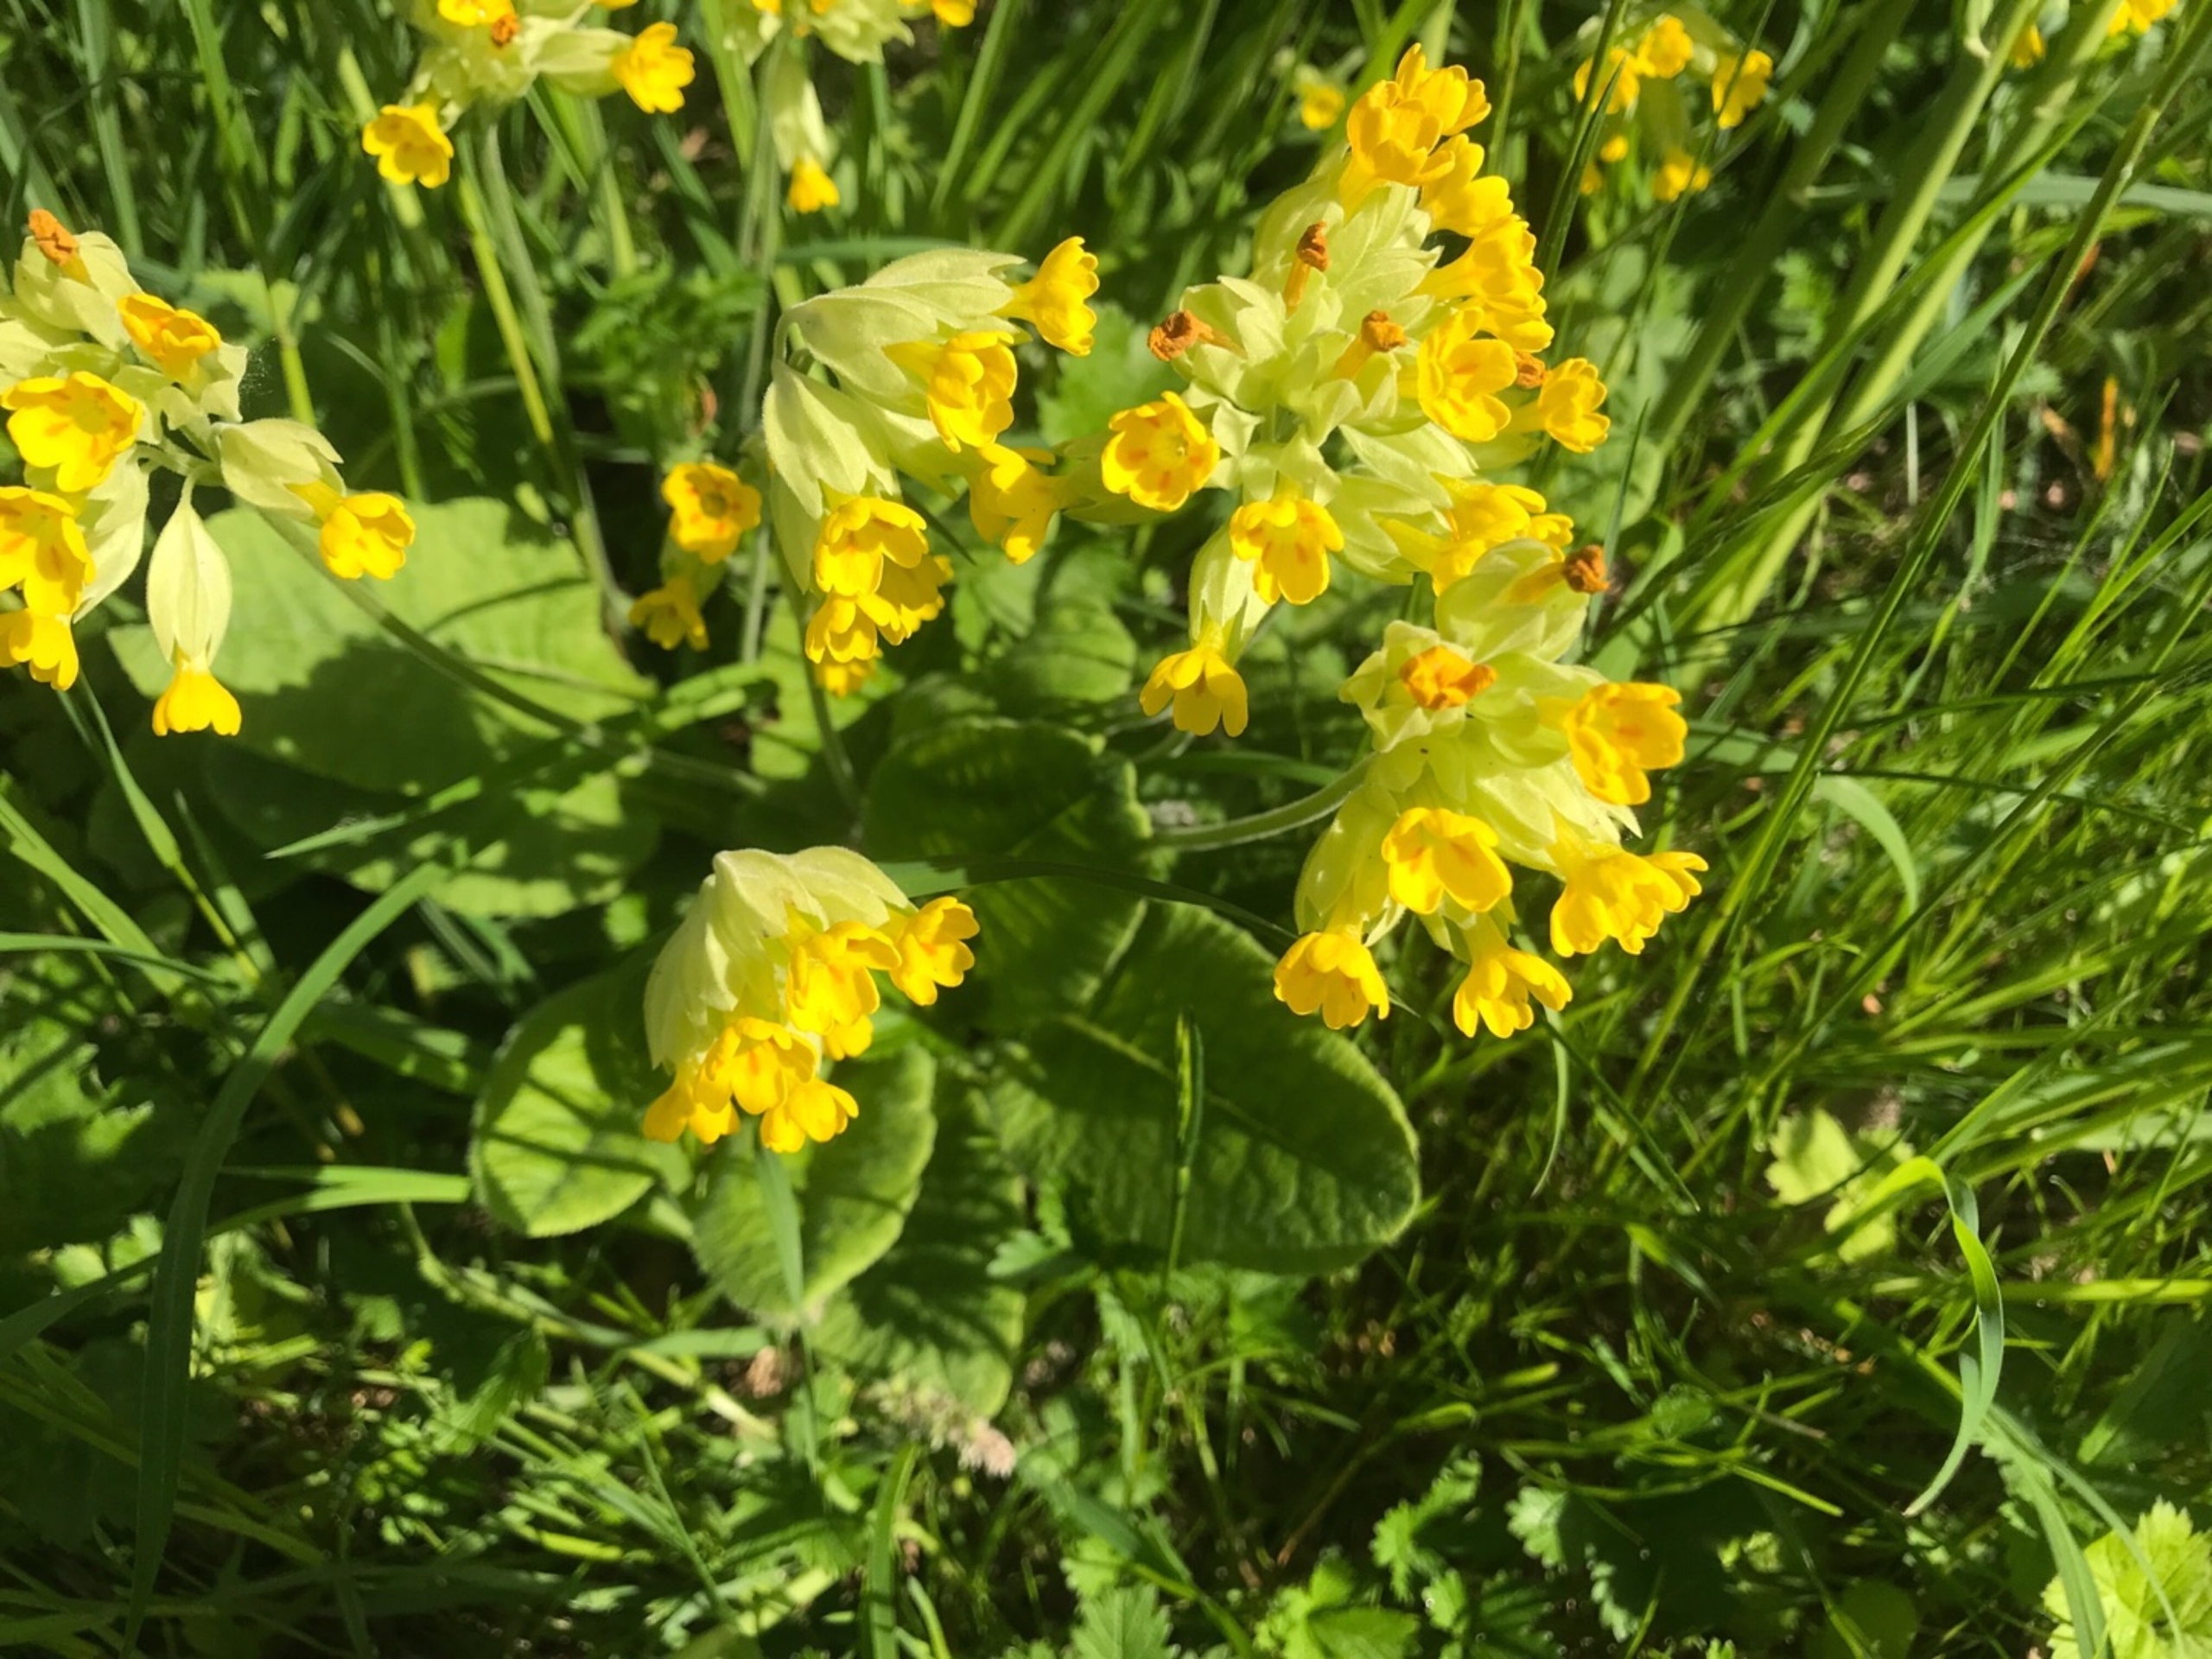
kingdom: Plantae
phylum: Tracheophyta
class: Magnoliopsida
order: Ericales
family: Primulaceae
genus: Primula
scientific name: Primula veris
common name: Hulkravet kodriver
